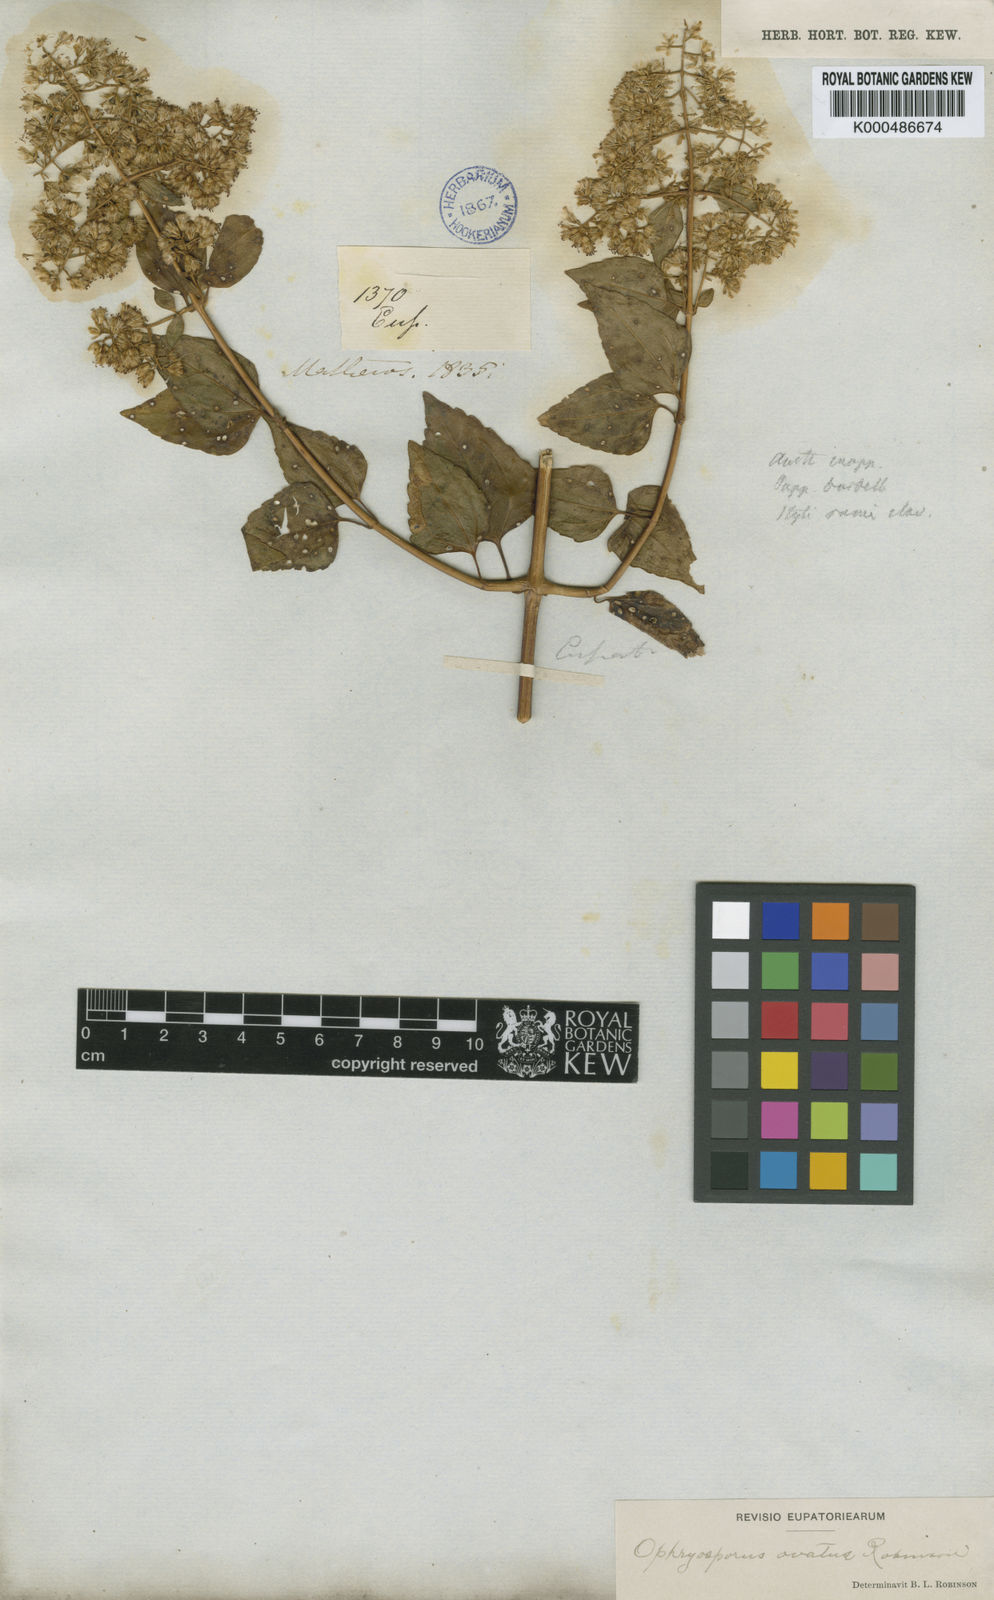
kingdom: Plantae
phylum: Tracheophyta
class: Magnoliopsida
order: Asterales
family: Asteraceae
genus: Ophryosporus
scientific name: Ophryosporus ovatus
